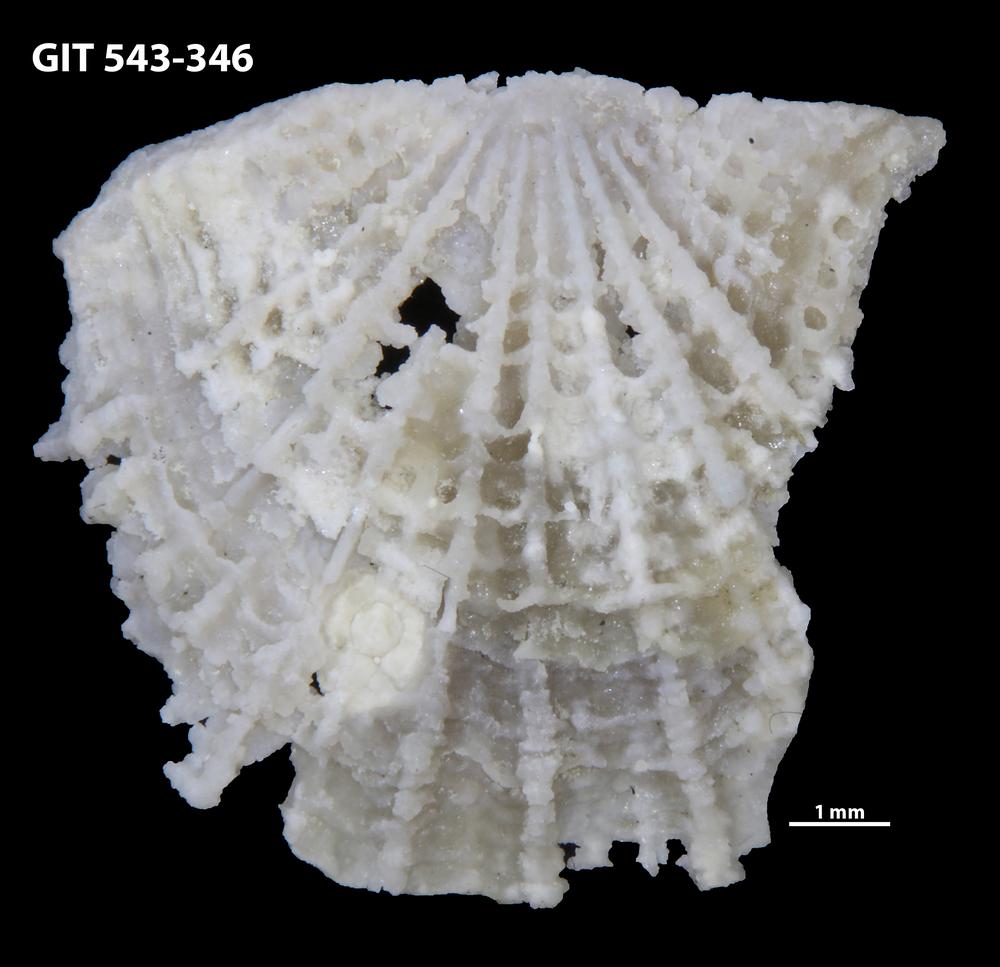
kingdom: Animalia
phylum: Brachiopoda
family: Kullervoidae
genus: Kullervo
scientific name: Kullervo
